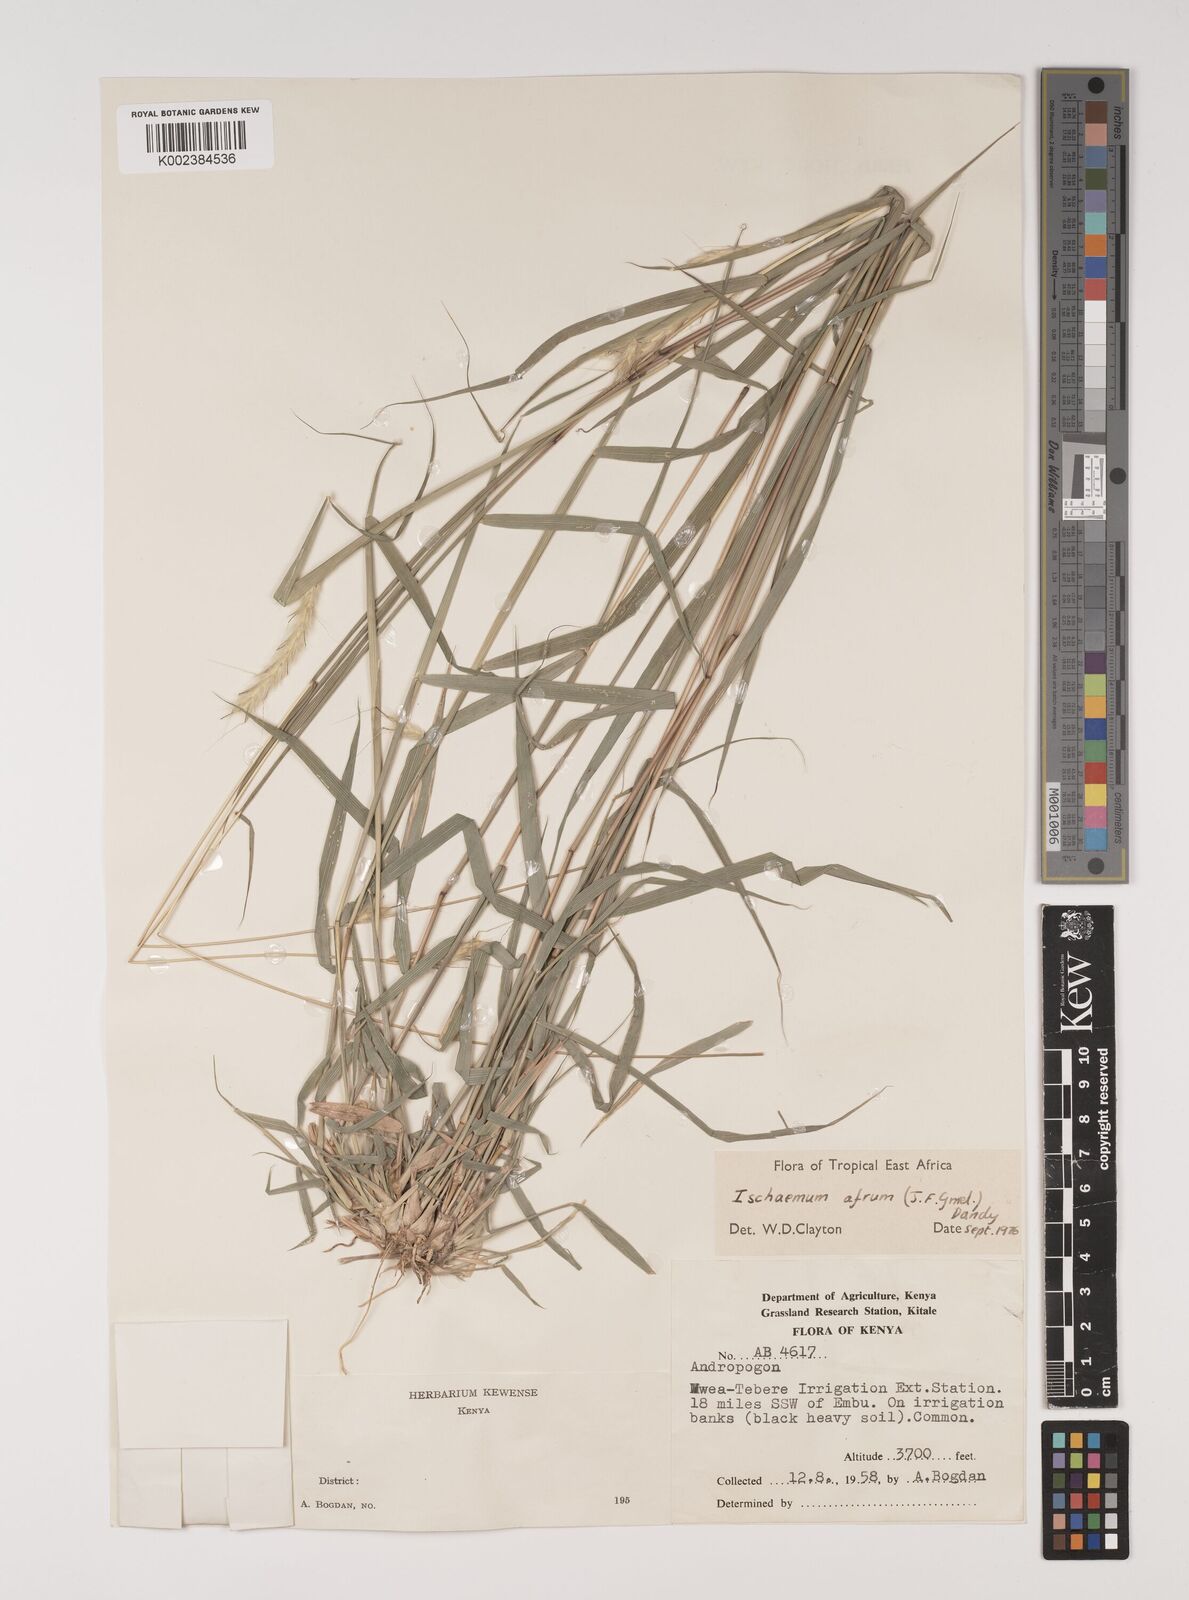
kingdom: Plantae
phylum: Tracheophyta
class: Liliopsida
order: Poales
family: Poaceae
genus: Ischaemum
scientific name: Ischaemum afrum
